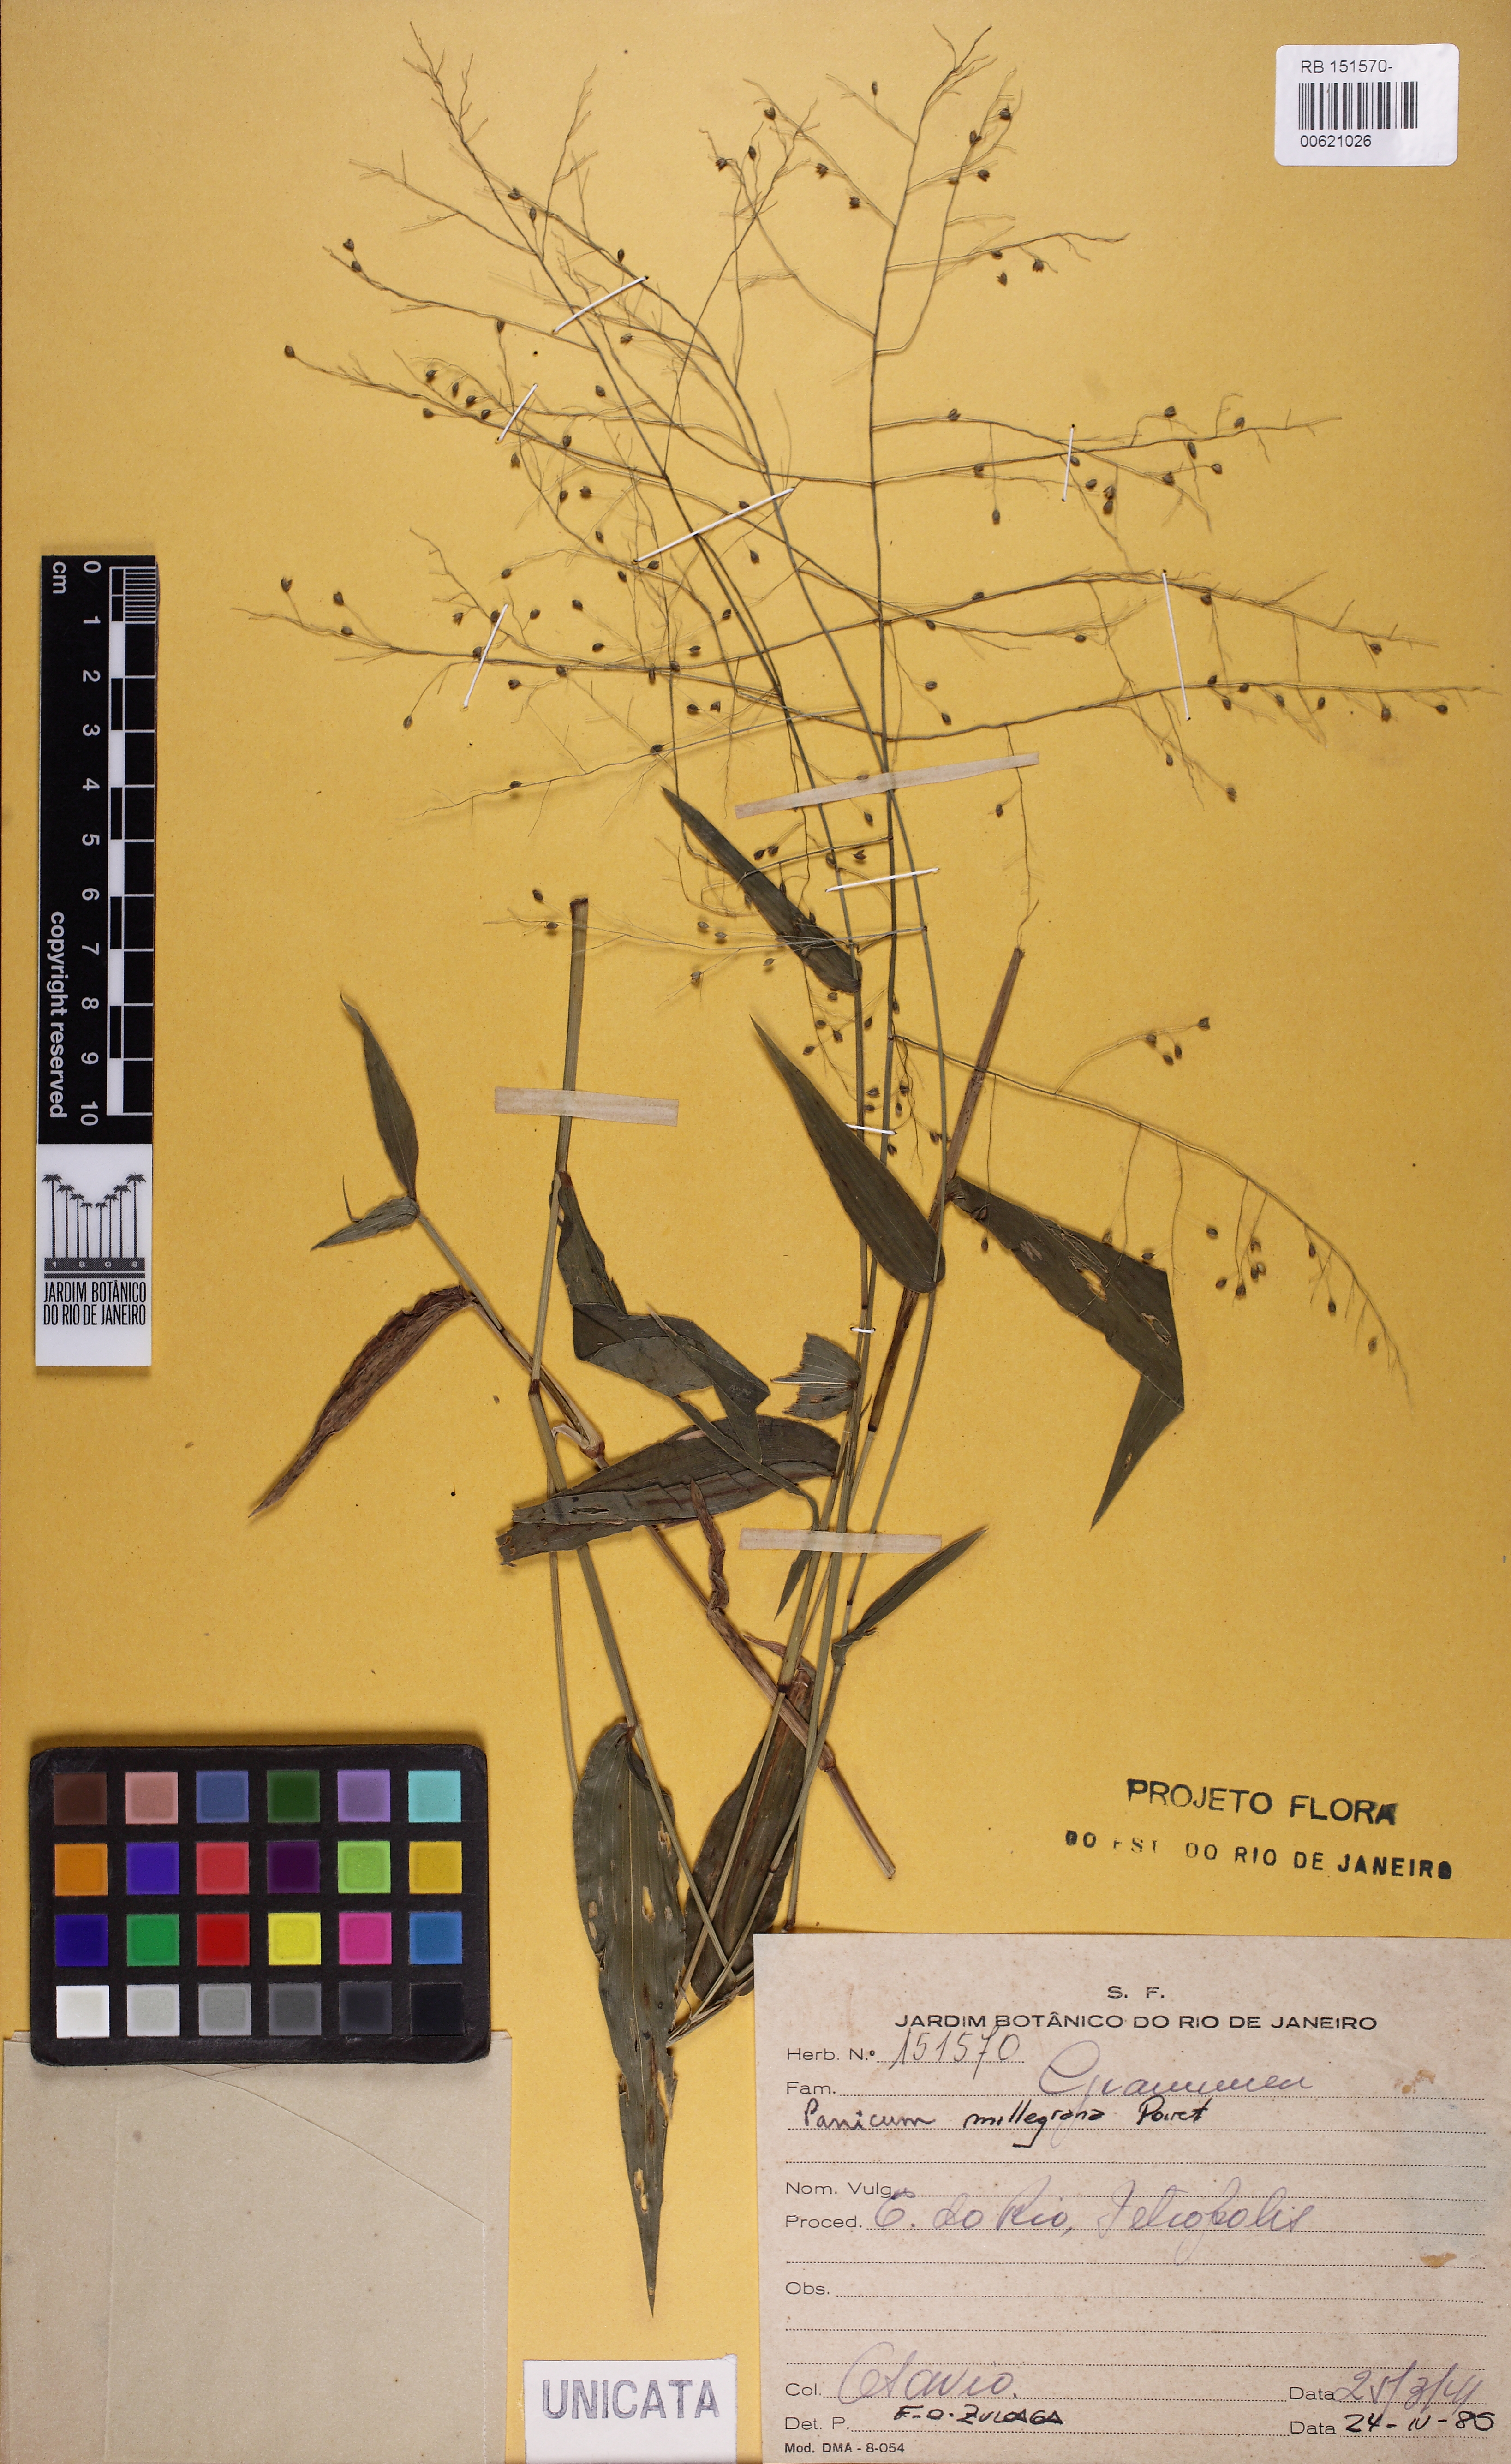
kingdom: Plantae
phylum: Tracheophyta
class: Liliopsida
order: Poales
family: Poaceae
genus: Panicum
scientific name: Panicum millegrana
